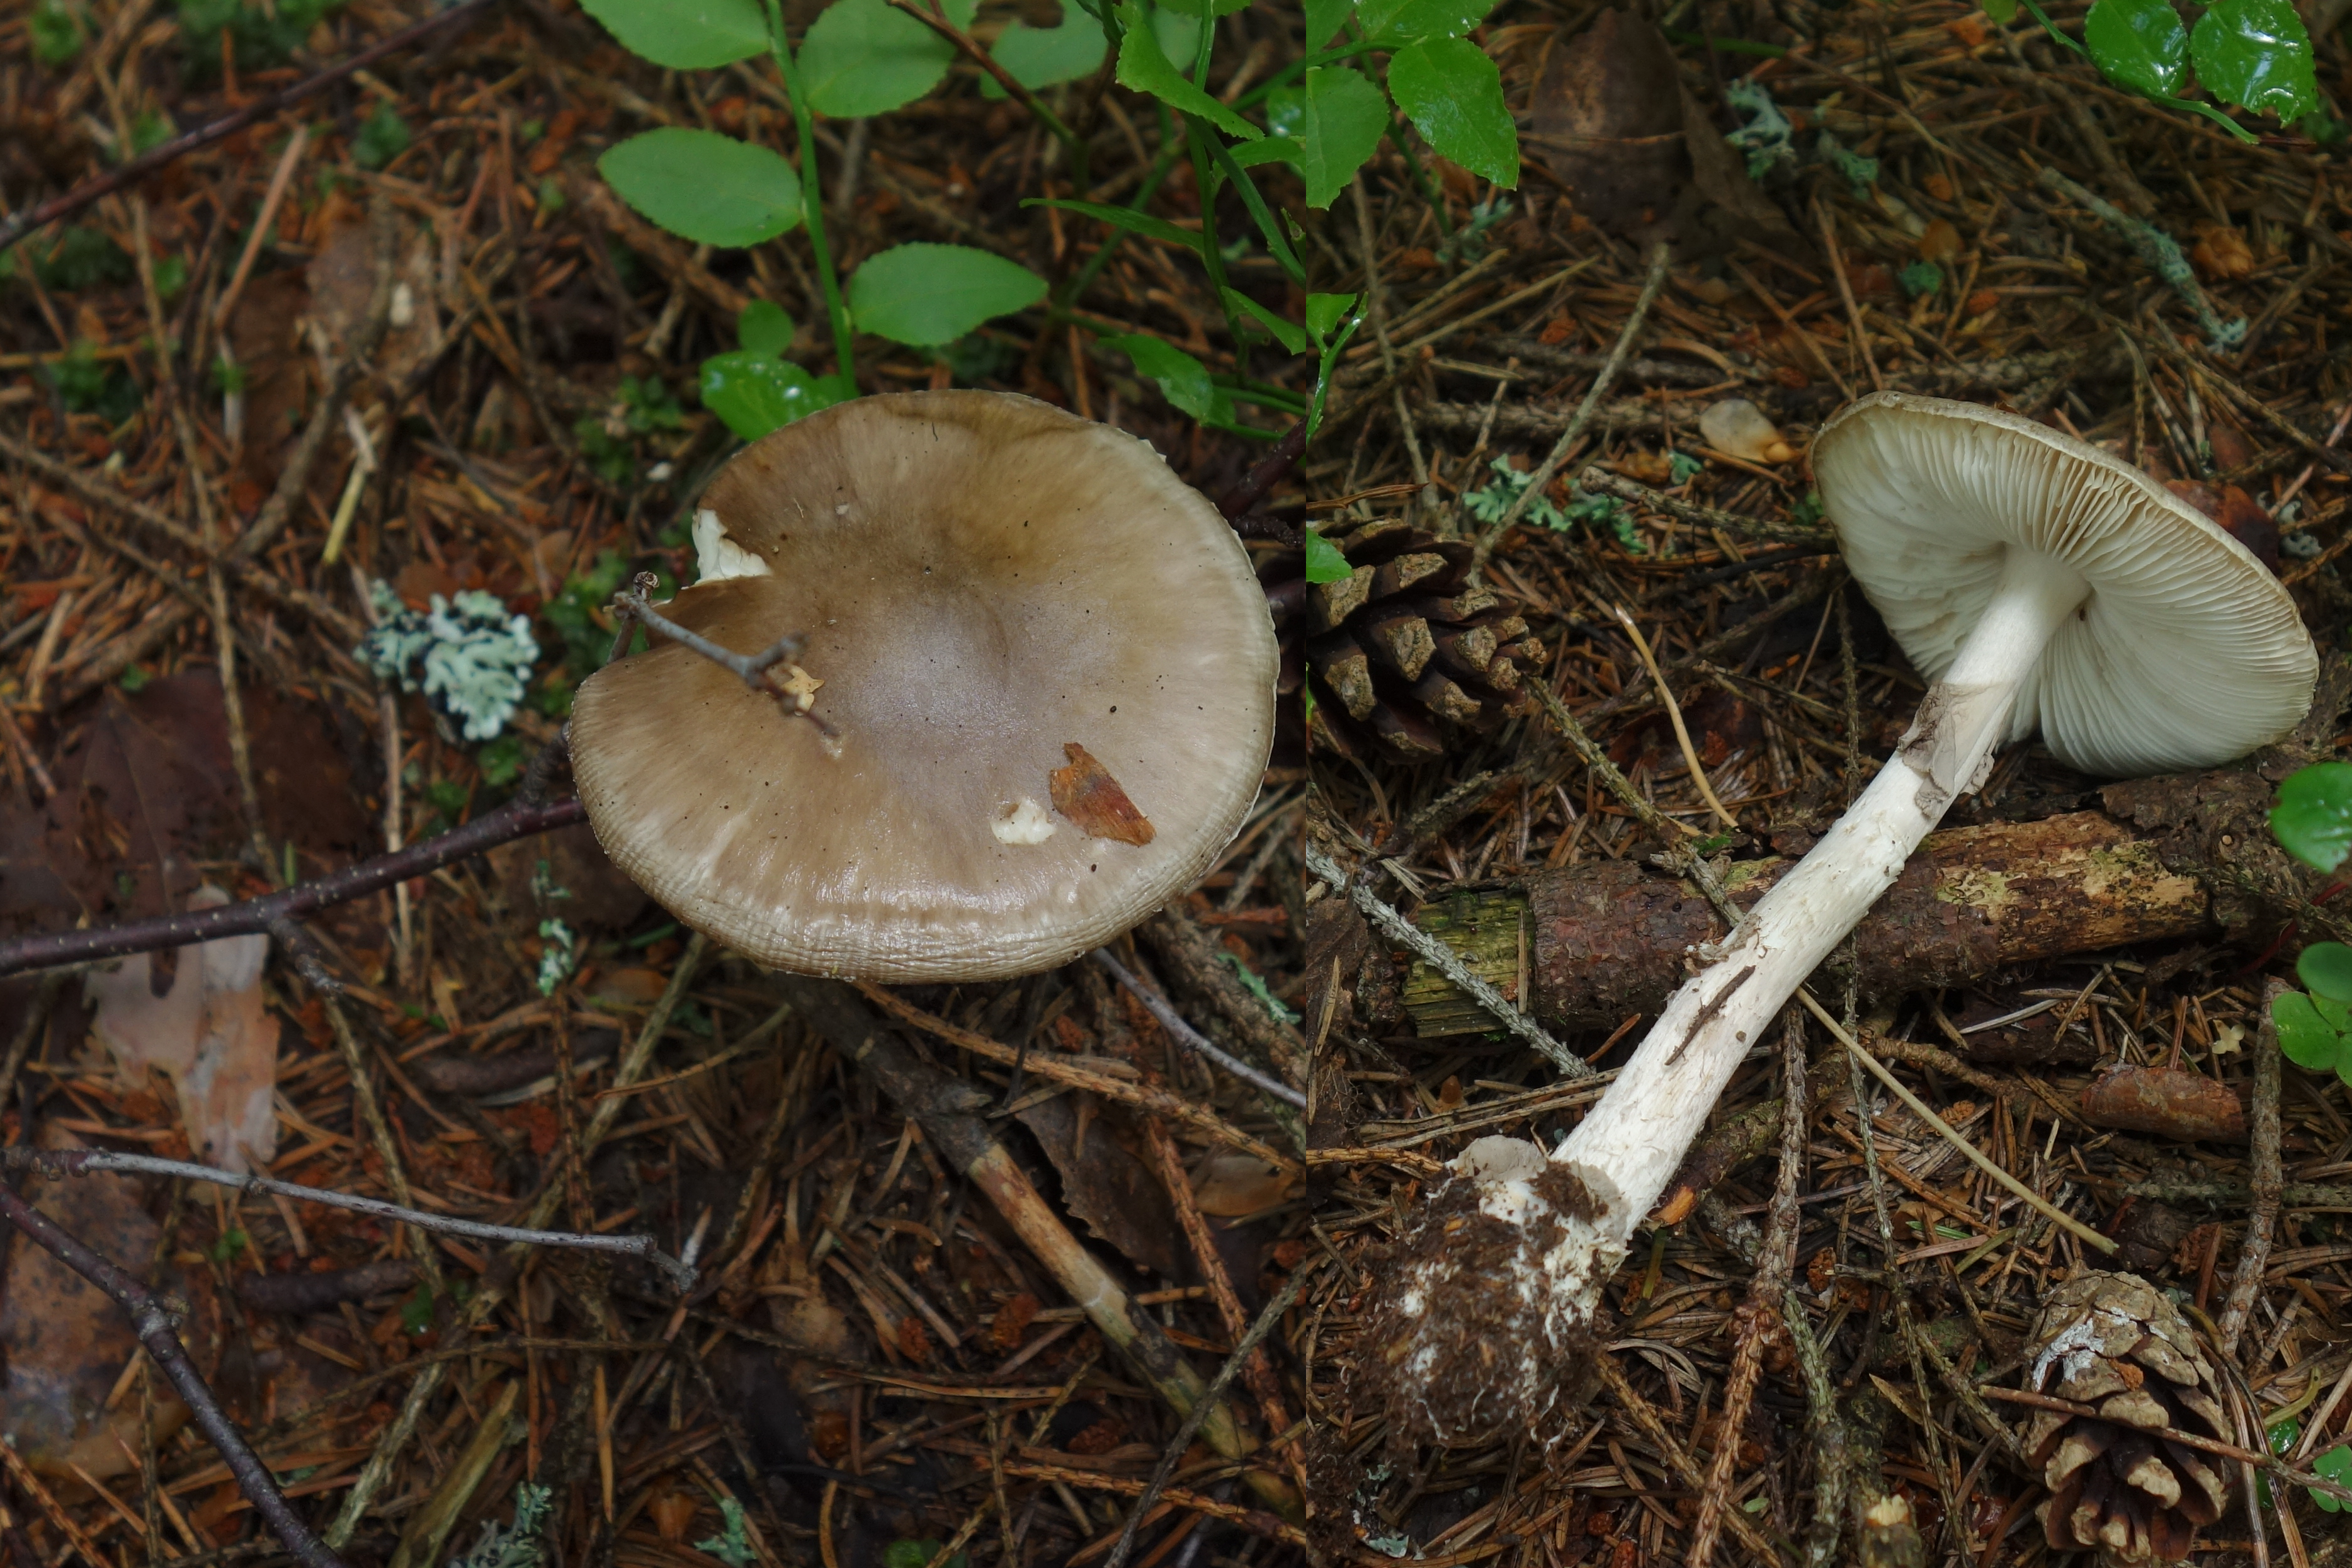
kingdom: Fungi
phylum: Basidiomycota
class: Agaricomycetes
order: Agaricales
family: Amanitaceae
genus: Amanita
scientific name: Amanita porphyria
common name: Grey veiled amanita
